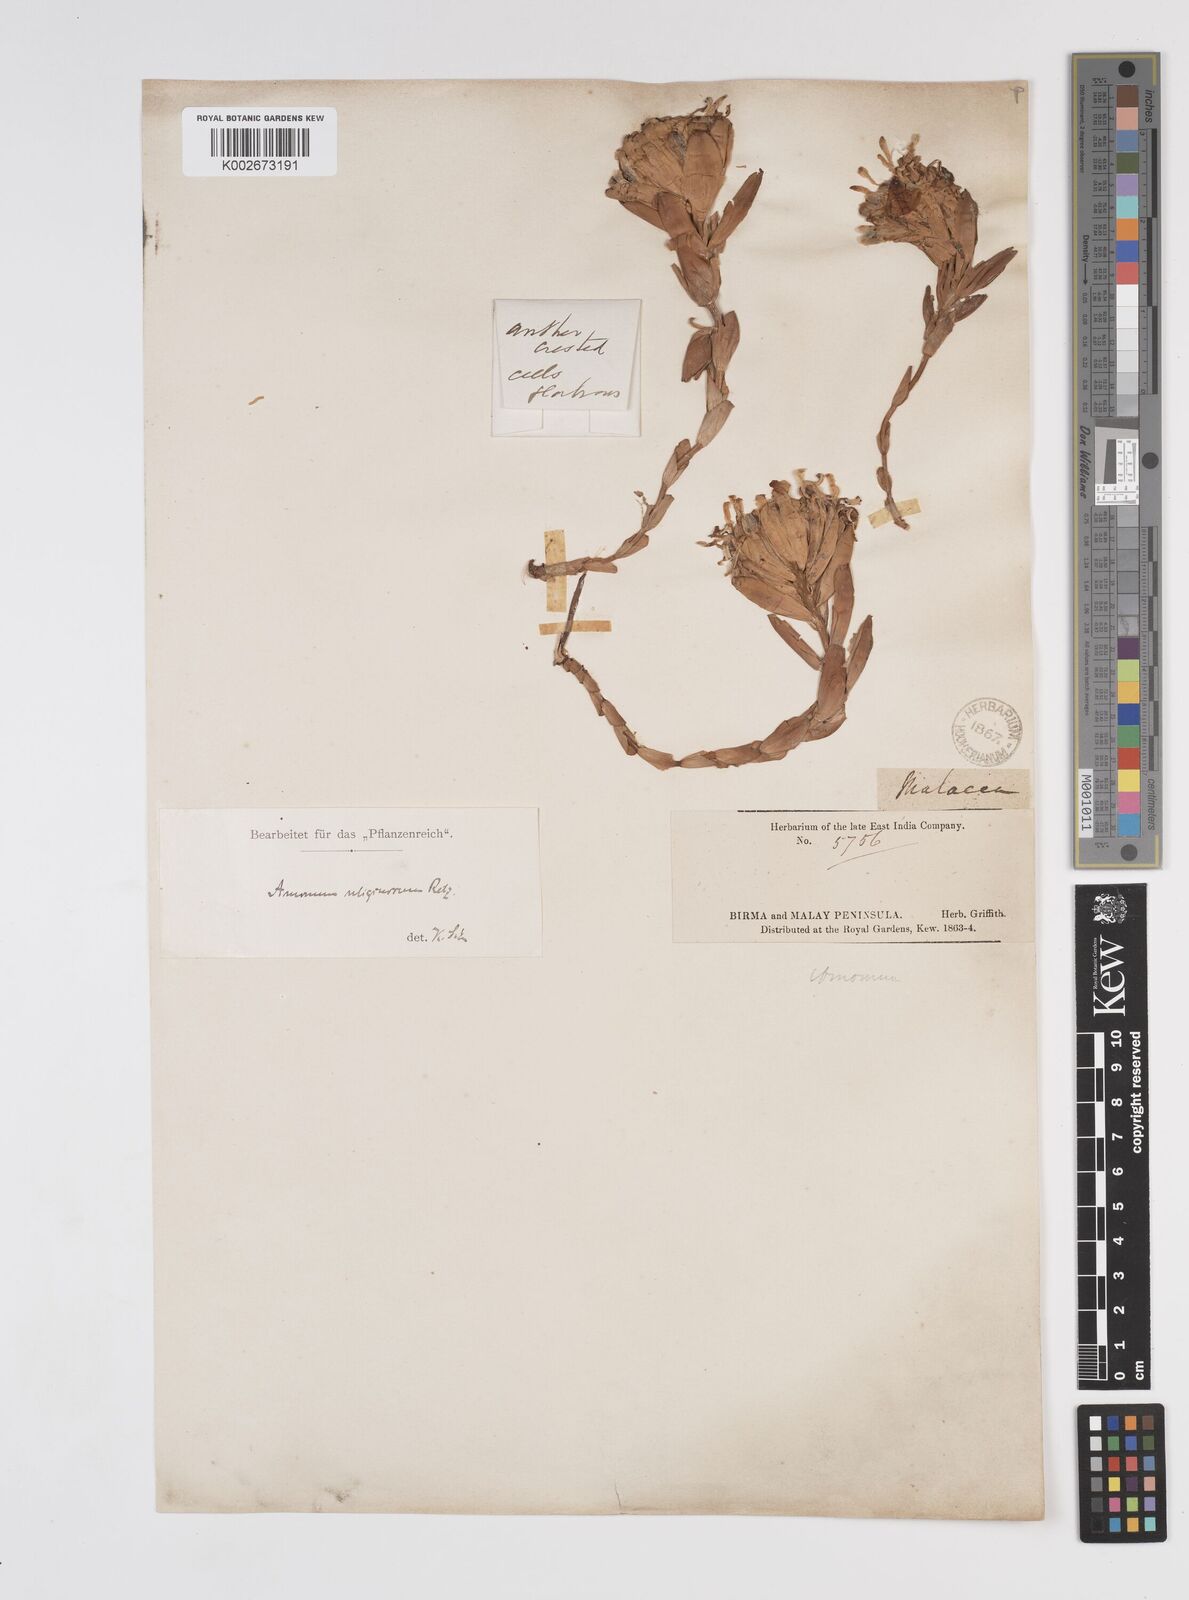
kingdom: Plantae
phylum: Tracheophyta
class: Liliopsida
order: Zingiberales
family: Zingiberaceae
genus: Wurfbainia
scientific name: Wurfbainia uliginosa
